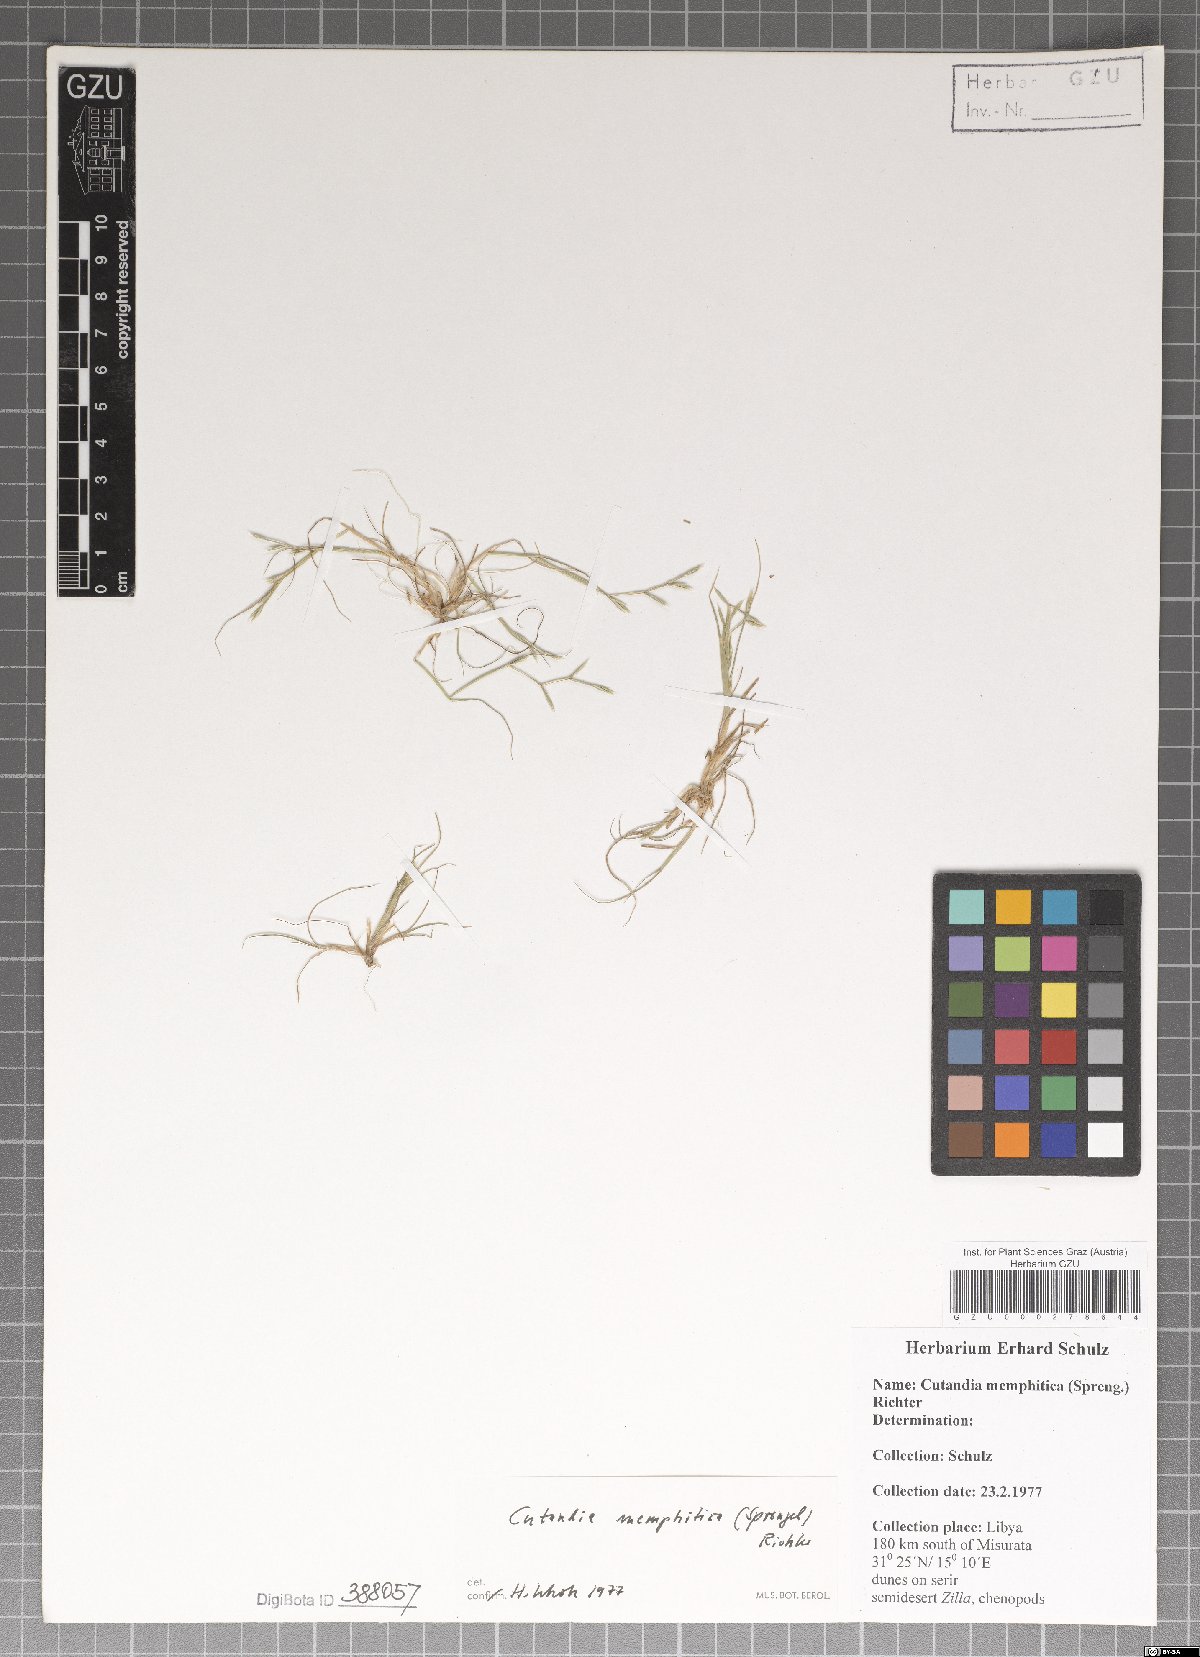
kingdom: Plantae
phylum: Tracheophyta
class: Liliopsida
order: Poales
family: Poaceae
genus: Cutandia
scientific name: Cutandia memphitica
